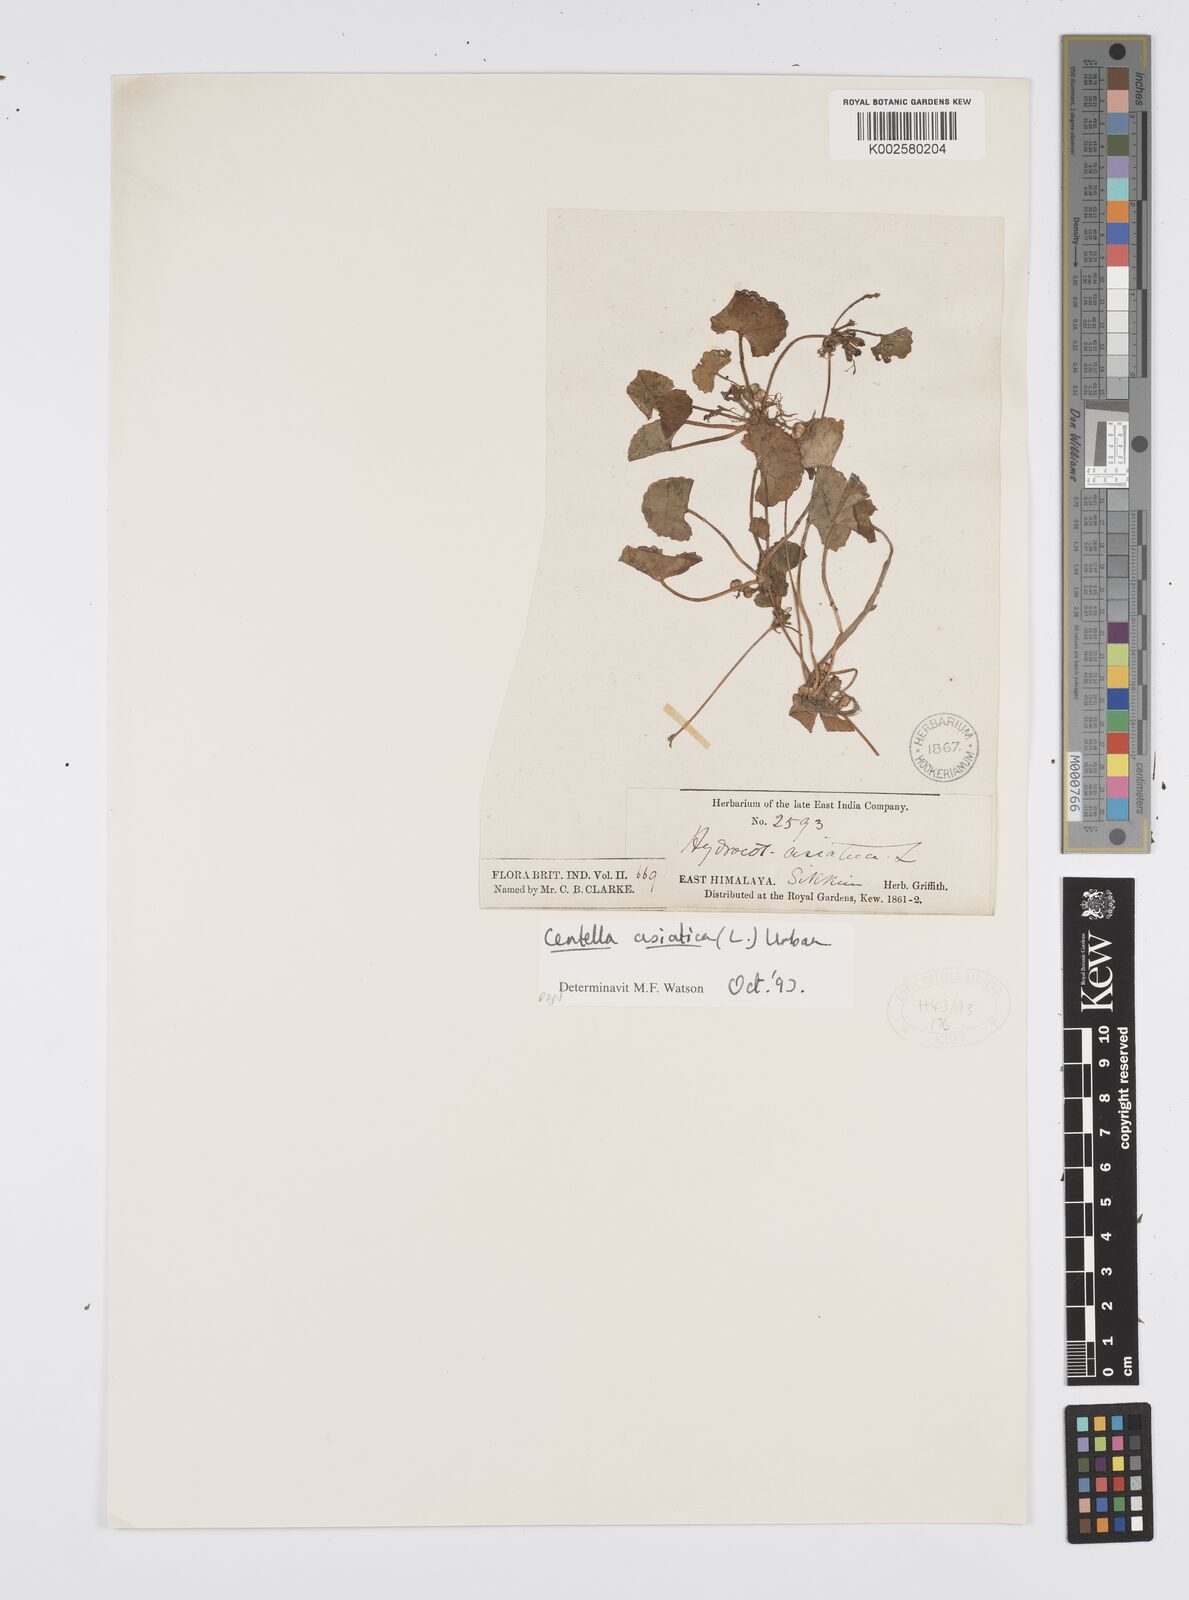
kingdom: Plantae
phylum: Tracheophyta
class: Magnoliopsida
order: Apiales
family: Apiaceae
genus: Centella
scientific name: Centella asiatica
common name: Spadeleaf
